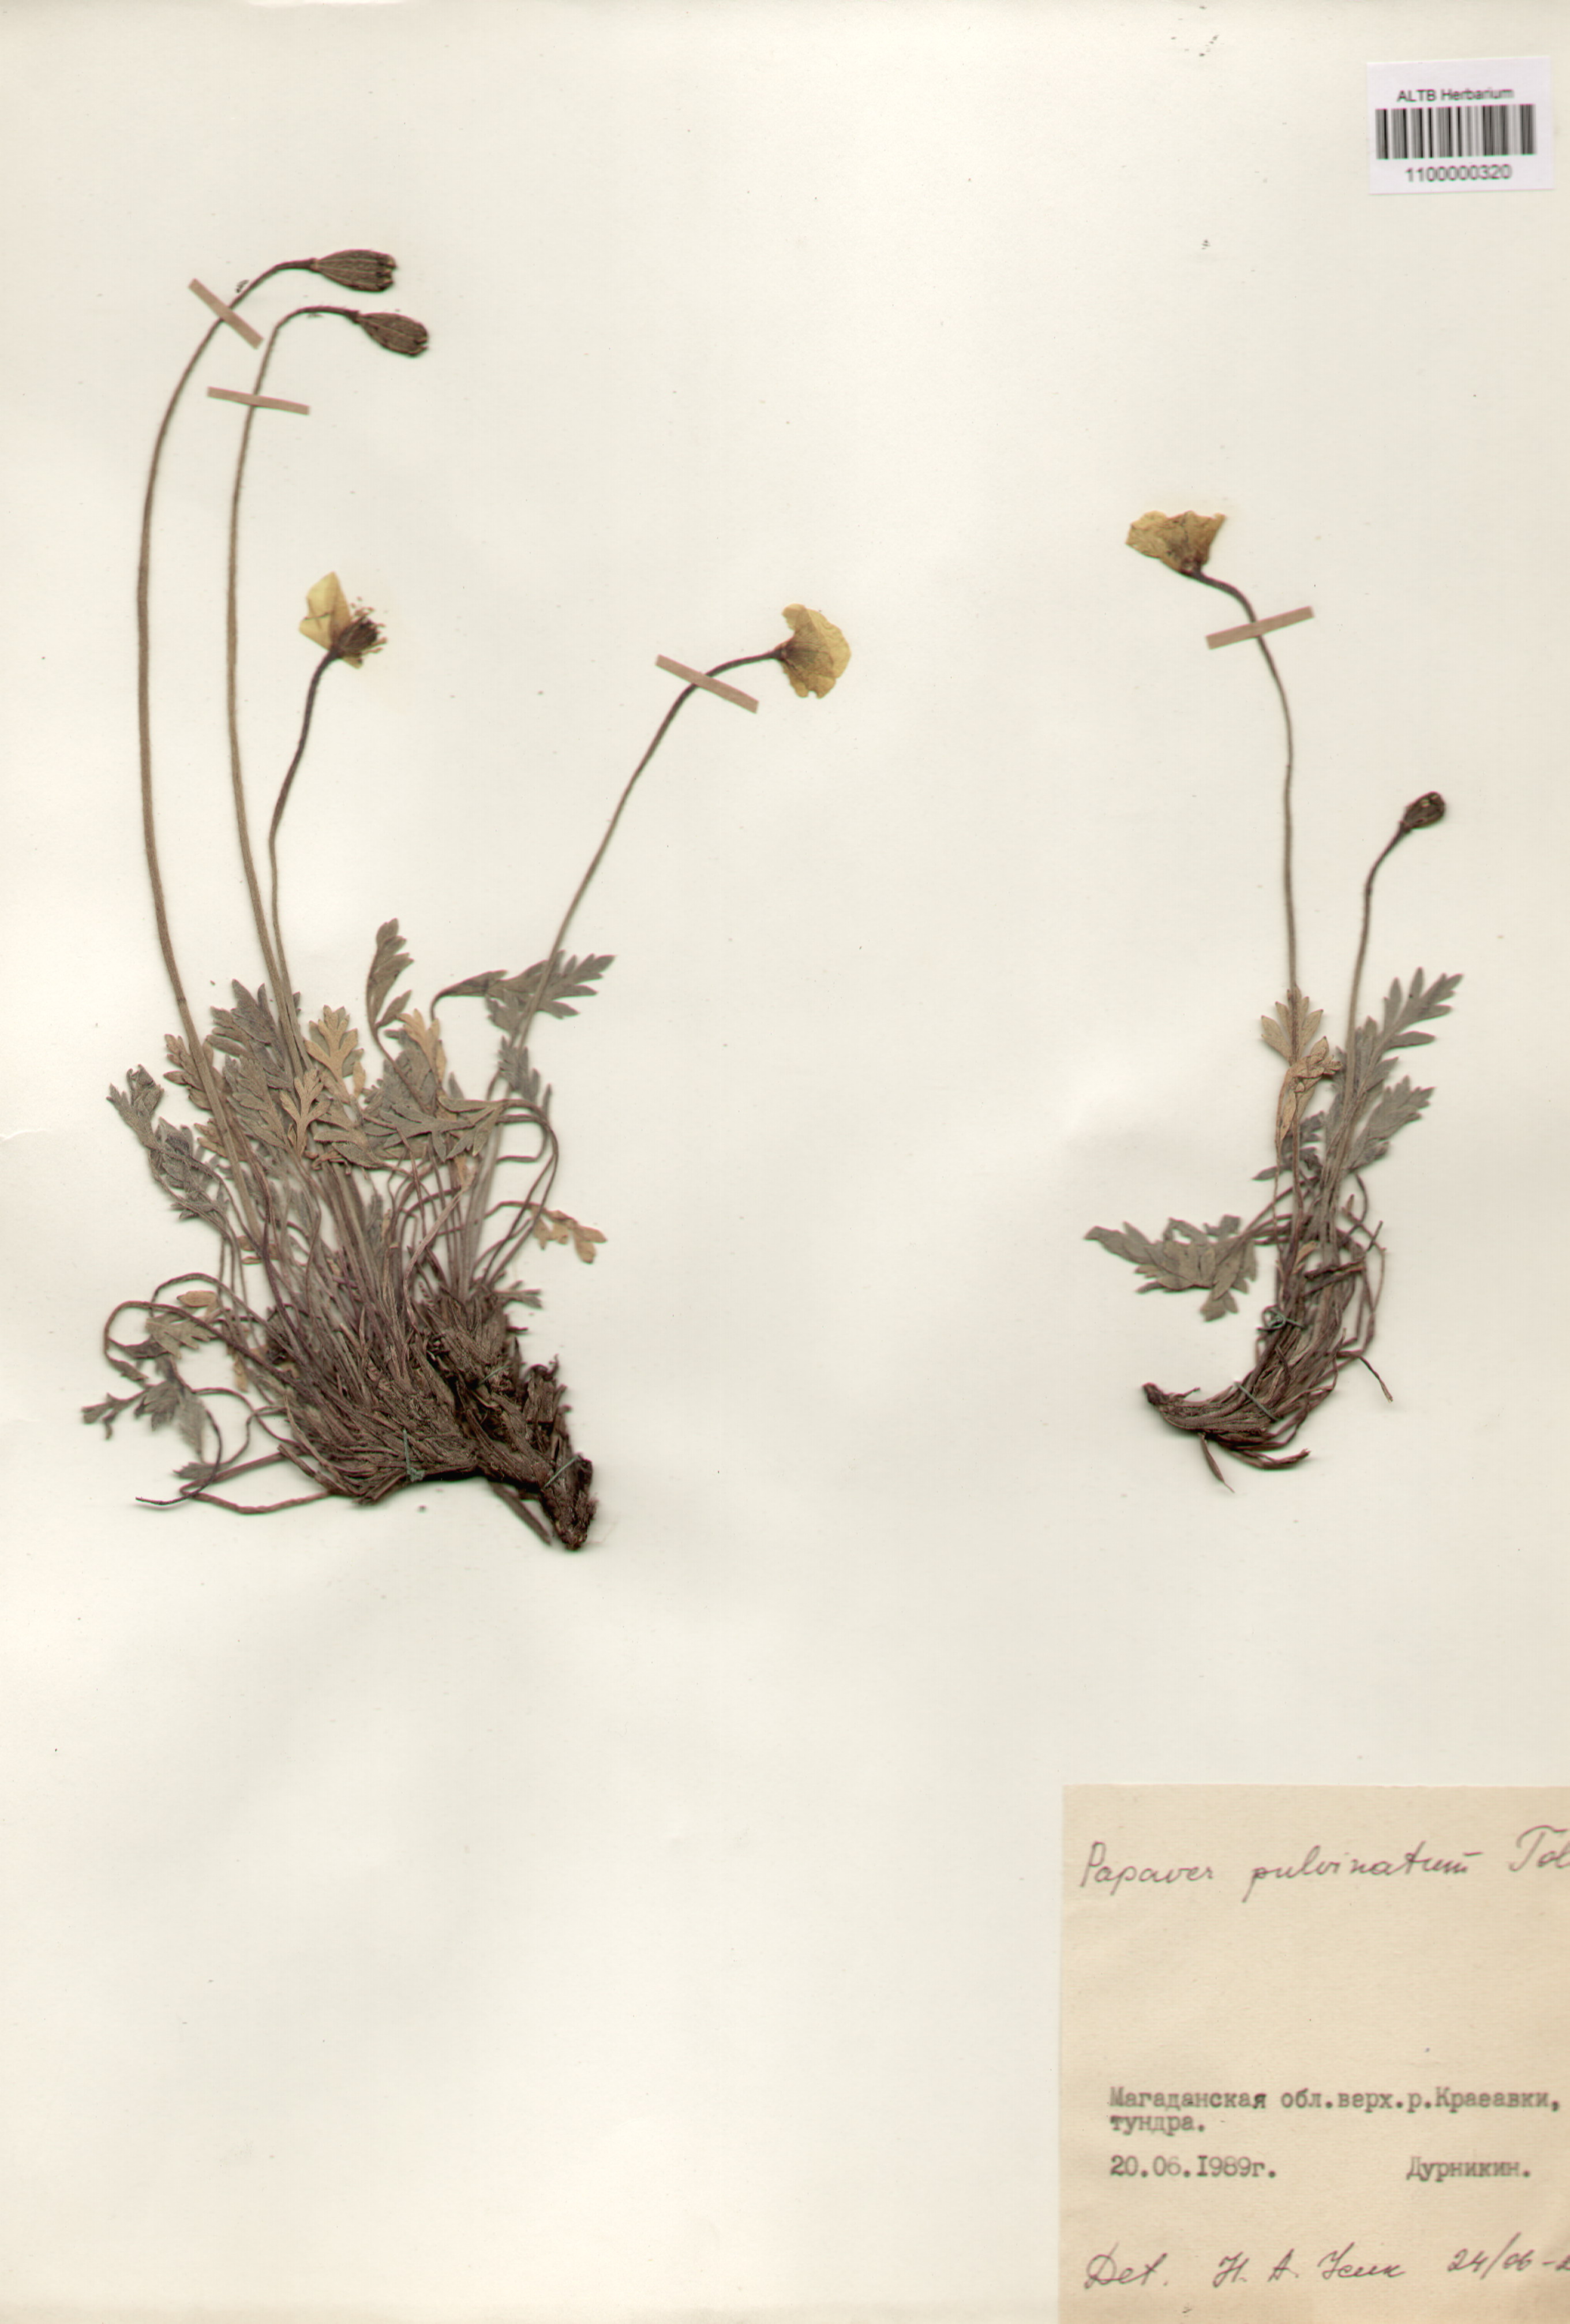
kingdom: Plantae
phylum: Tracheophyta
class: Magnoliopsida
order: Ranunculales
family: Papaveraceae
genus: Papaver
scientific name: Papaver pulvinatum
